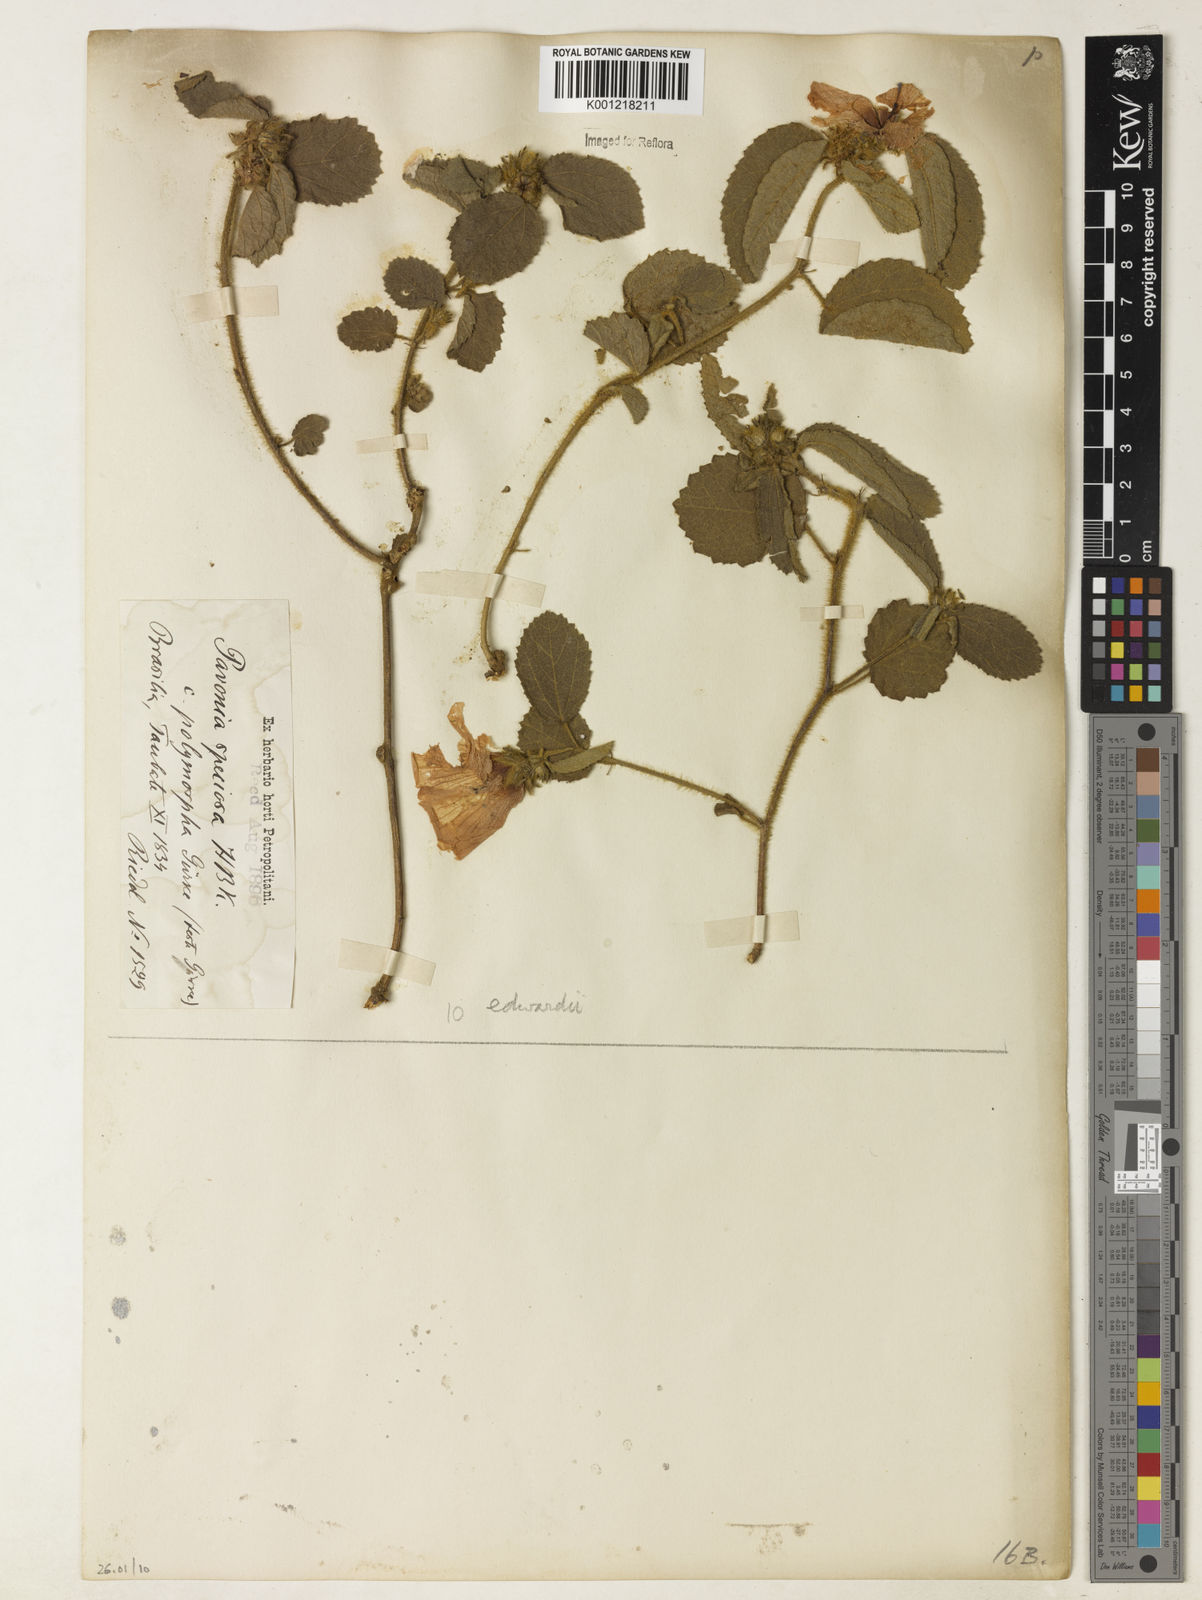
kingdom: Plantae
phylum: Tracheophyta
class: Magnoliopsida
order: Malvales
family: Malvaceae
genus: Peltaea
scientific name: Peltaea
